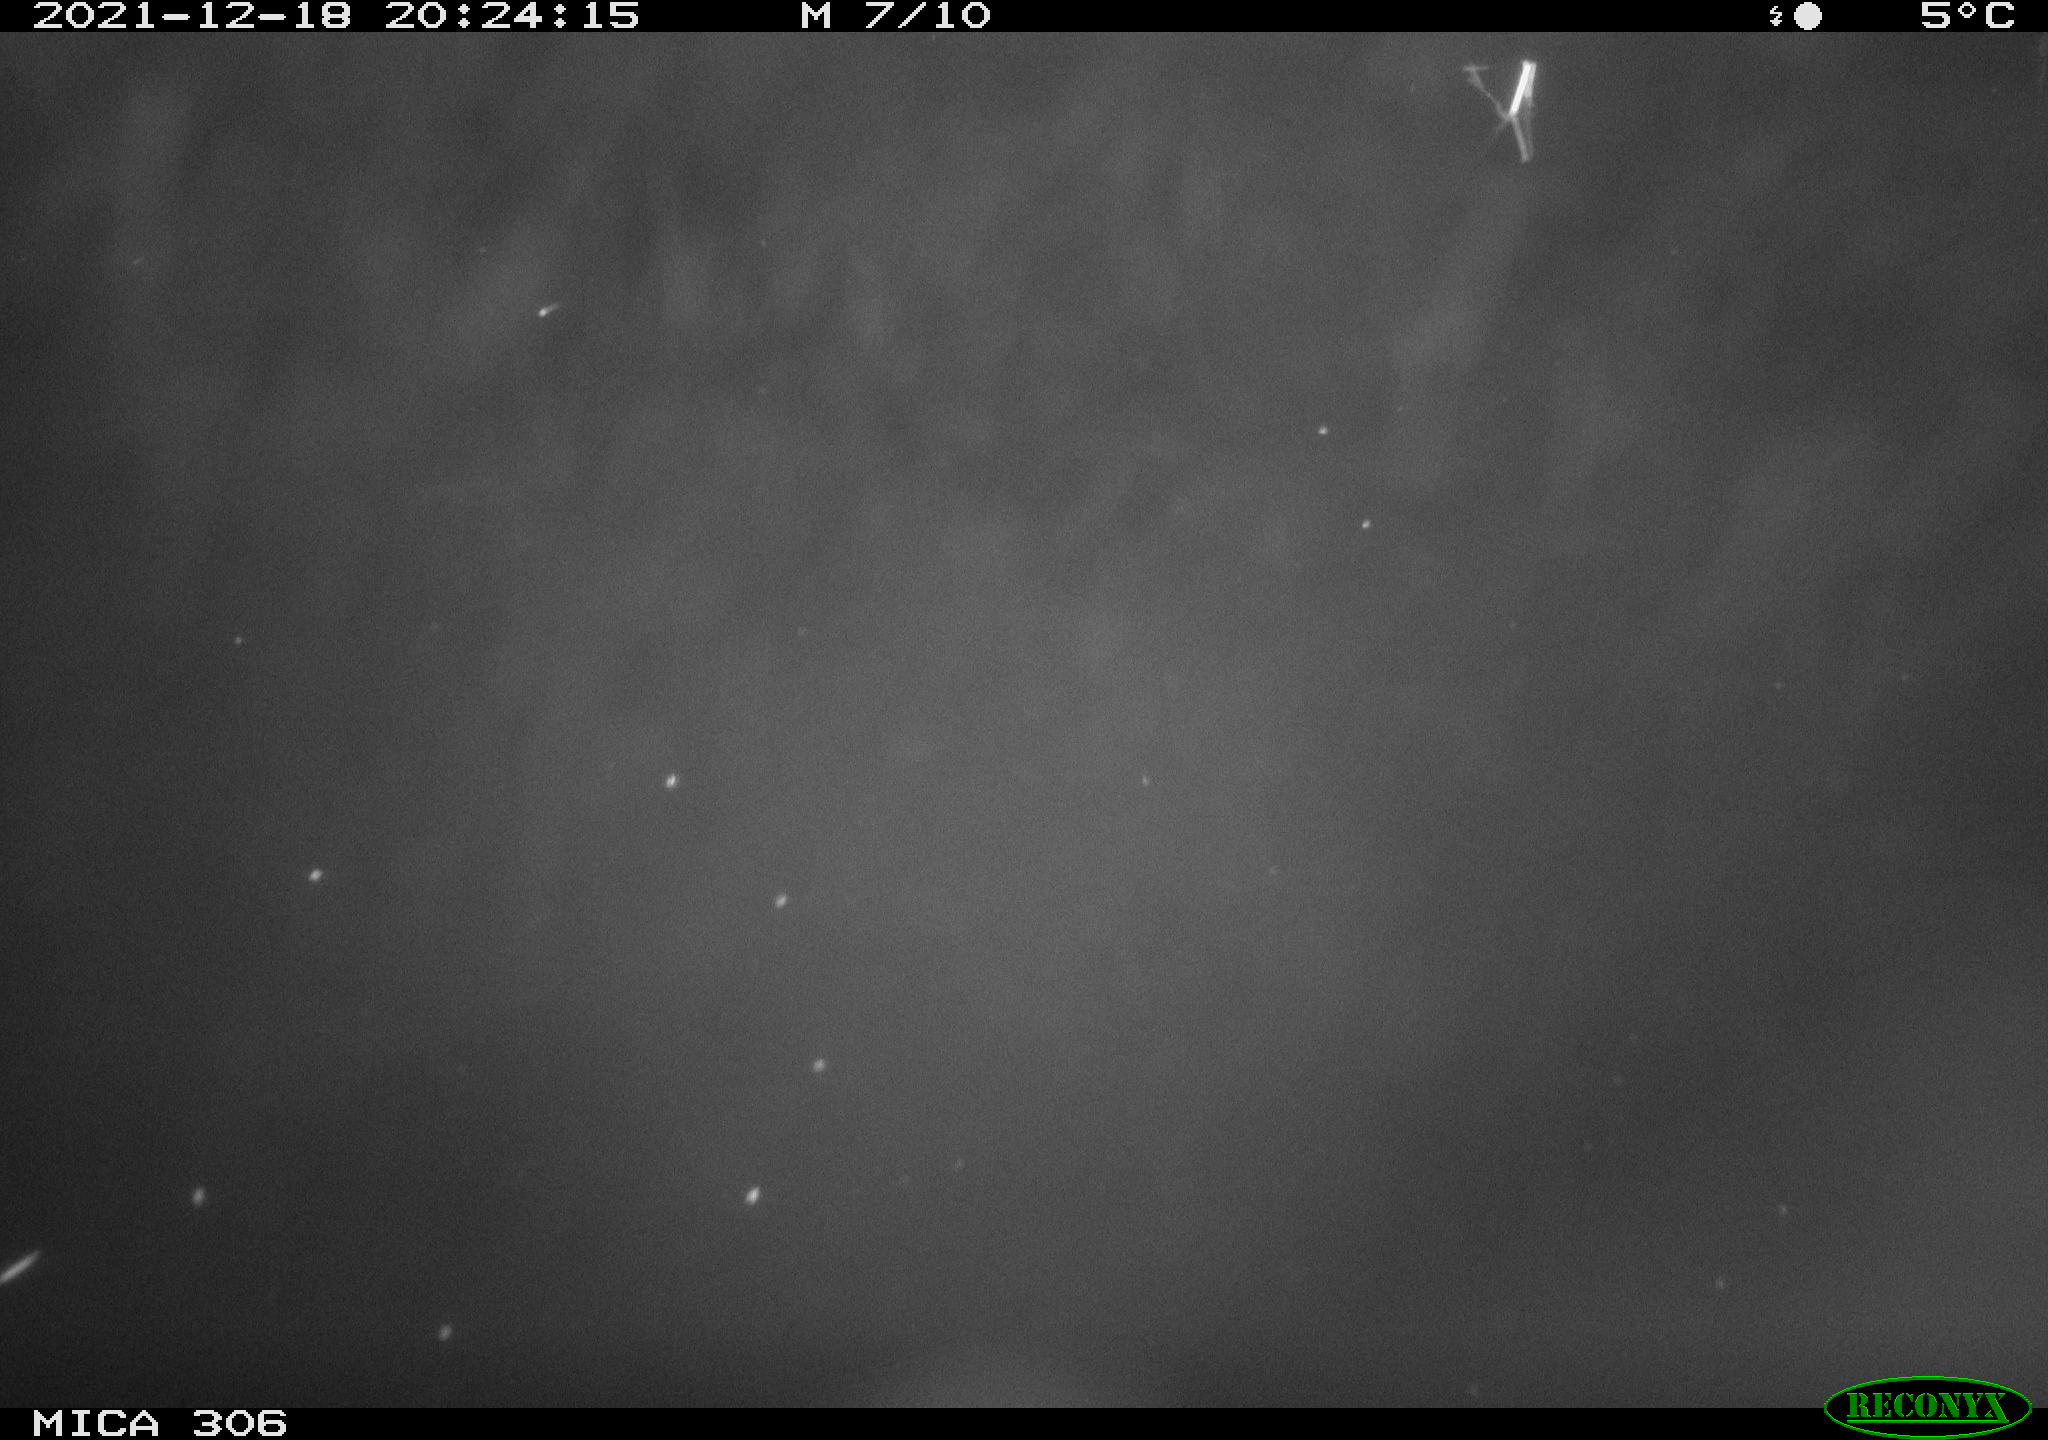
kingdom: Animalia
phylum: Chordata
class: Mammalia
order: Rodentia
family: Muridae
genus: Rattus
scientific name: Rattus norvegicus
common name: Brown rat
